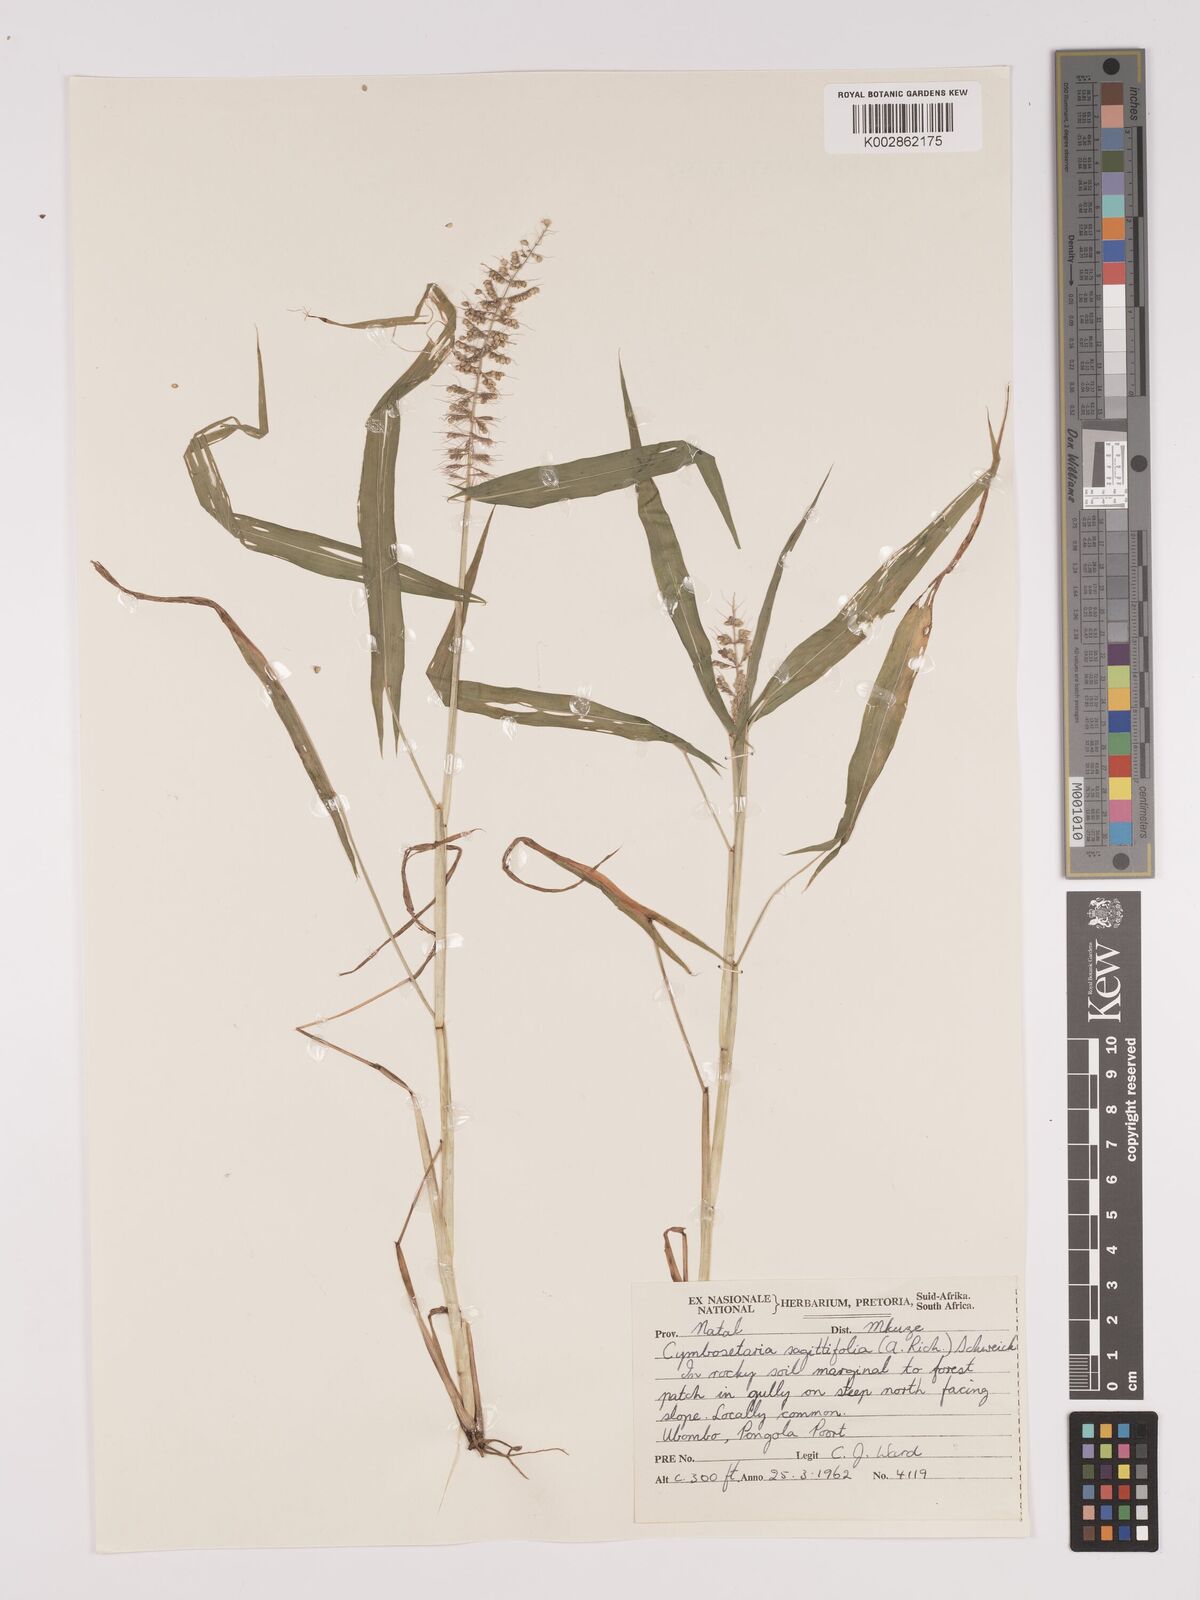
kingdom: Plantae
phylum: Tracheophyta
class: Liliopsida
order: Poales
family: Poaceae
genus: Setaria
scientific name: Setaria sagittifolia
